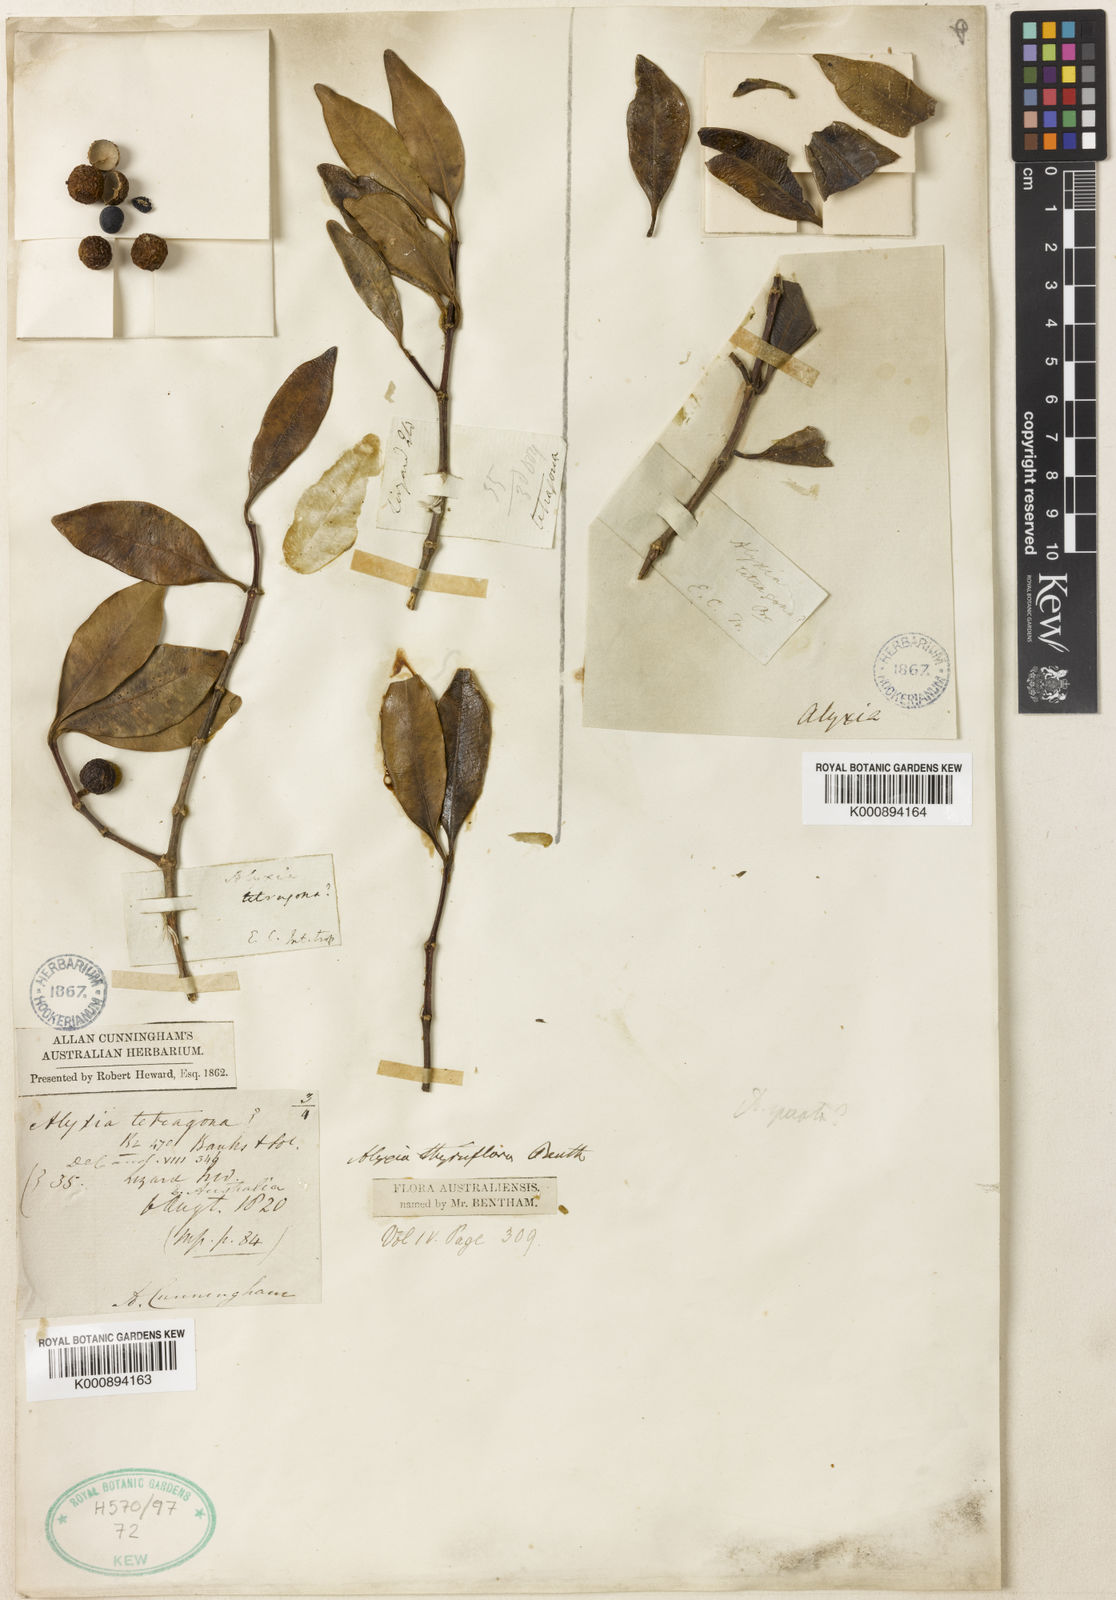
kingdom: Plantae
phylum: Tracheophyta
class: Magnoliopsida
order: Gentianales
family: Apocynaceae
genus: Alyxia
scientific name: Alyxia spicata
